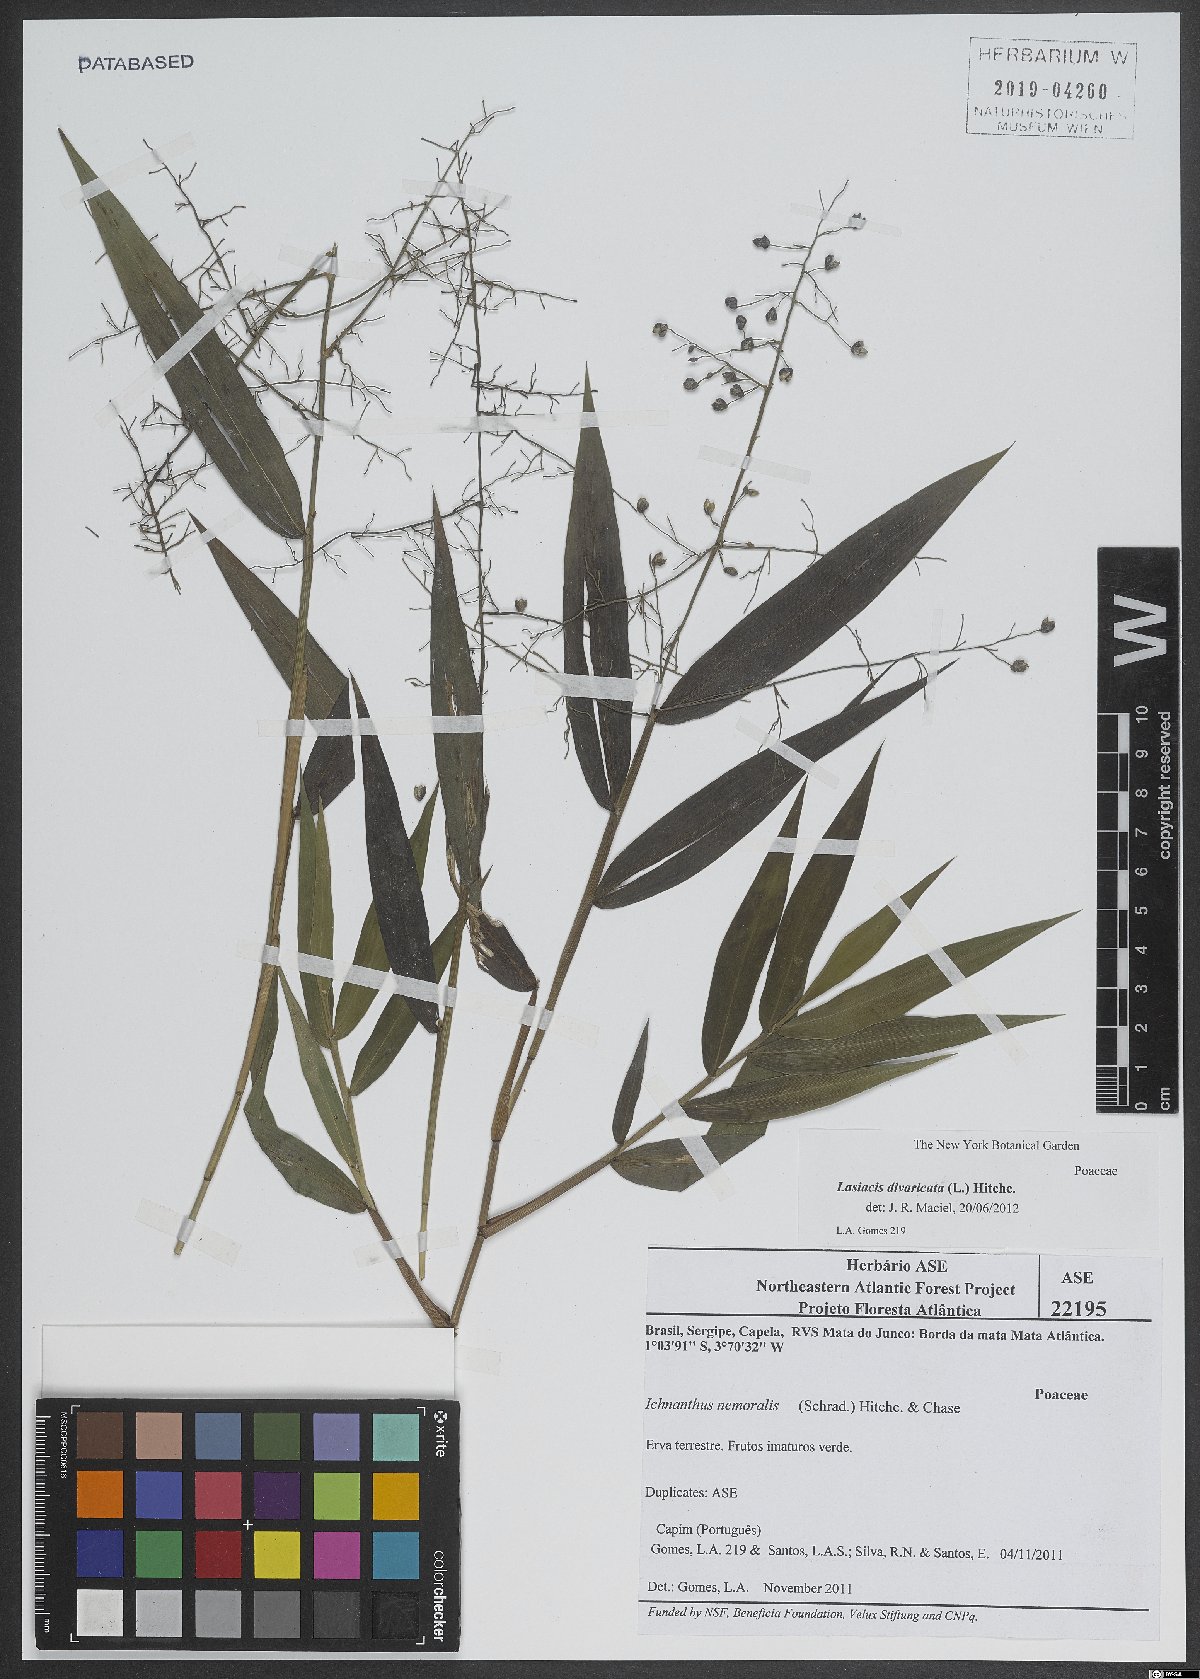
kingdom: Plantae
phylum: Tracheophyta
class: Liliopsida
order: Poales
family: Poaceae
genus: Lasiacis
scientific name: Lasiacis divaricata
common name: Smallcane
